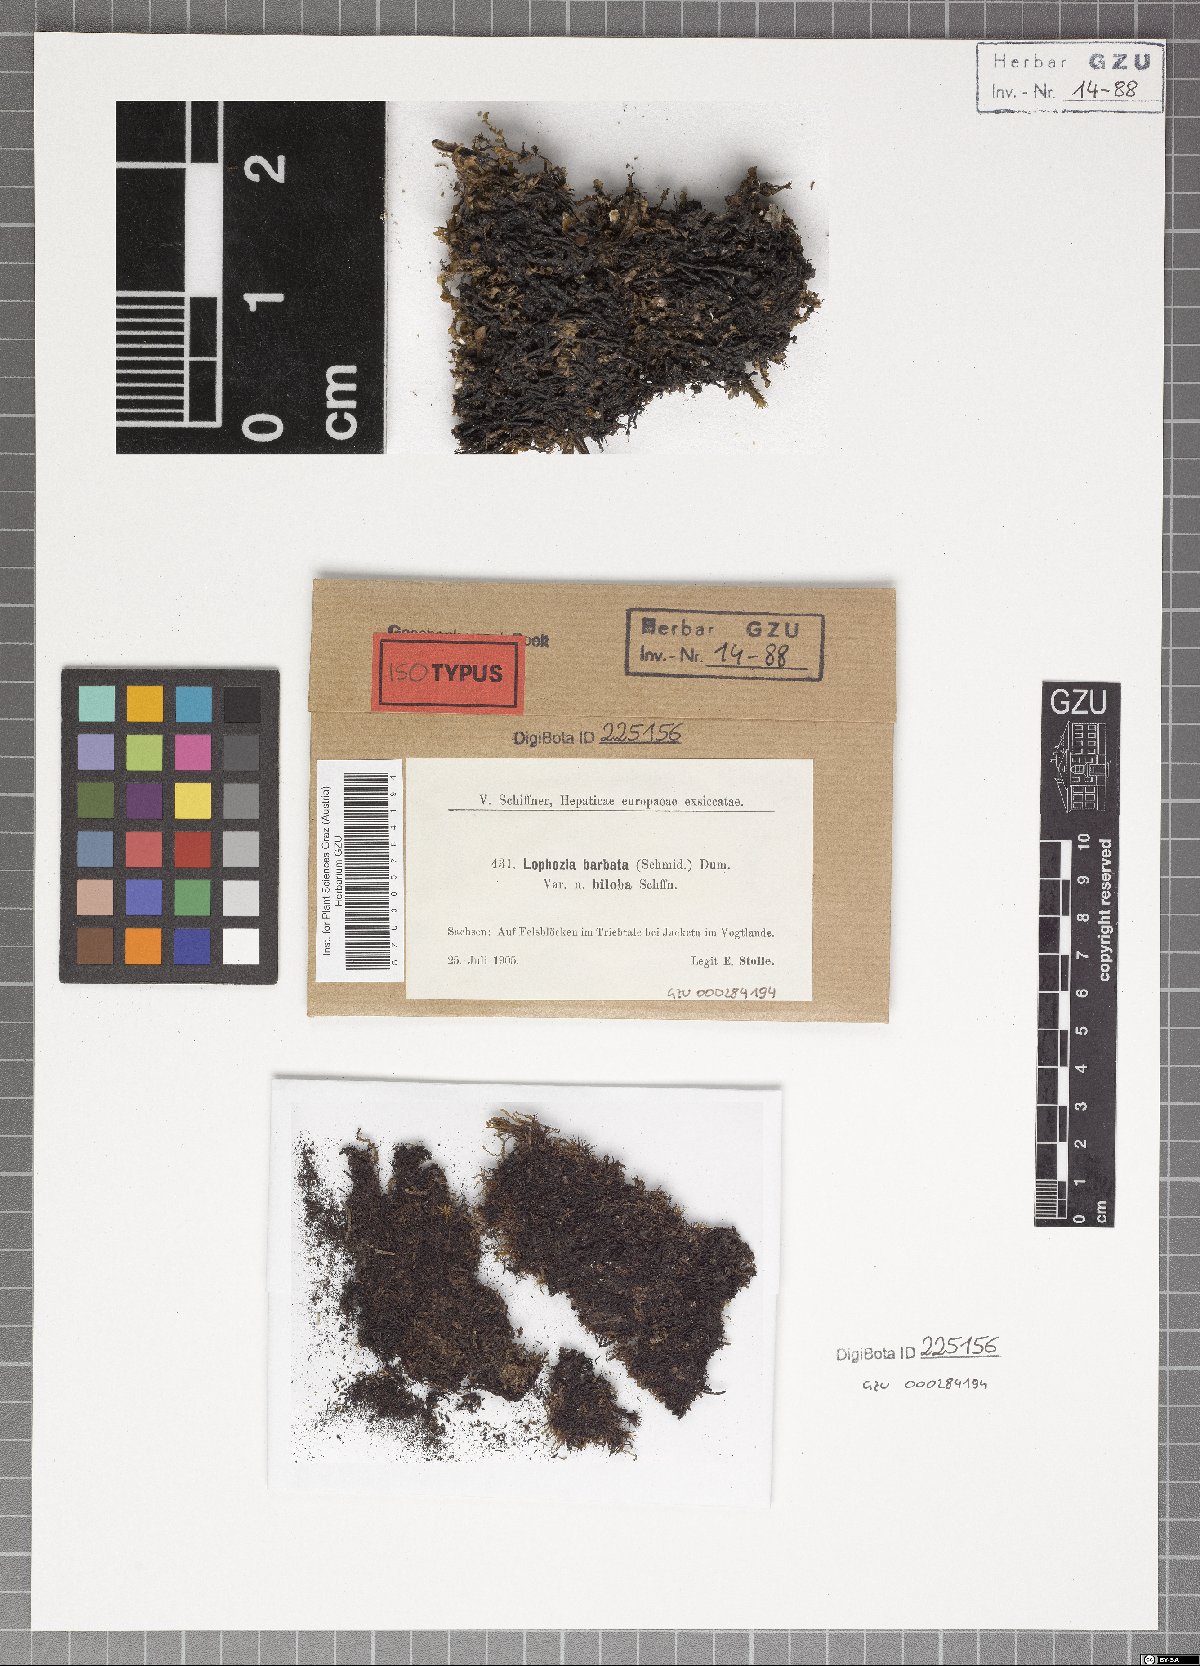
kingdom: Plantae
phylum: Marchantiophyta
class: Jungermanniopsida
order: Jungermanniales
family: Anastrophyllaceae
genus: Barbilophozia
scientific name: Barbilophozia barbata
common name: Bearded pawwort
